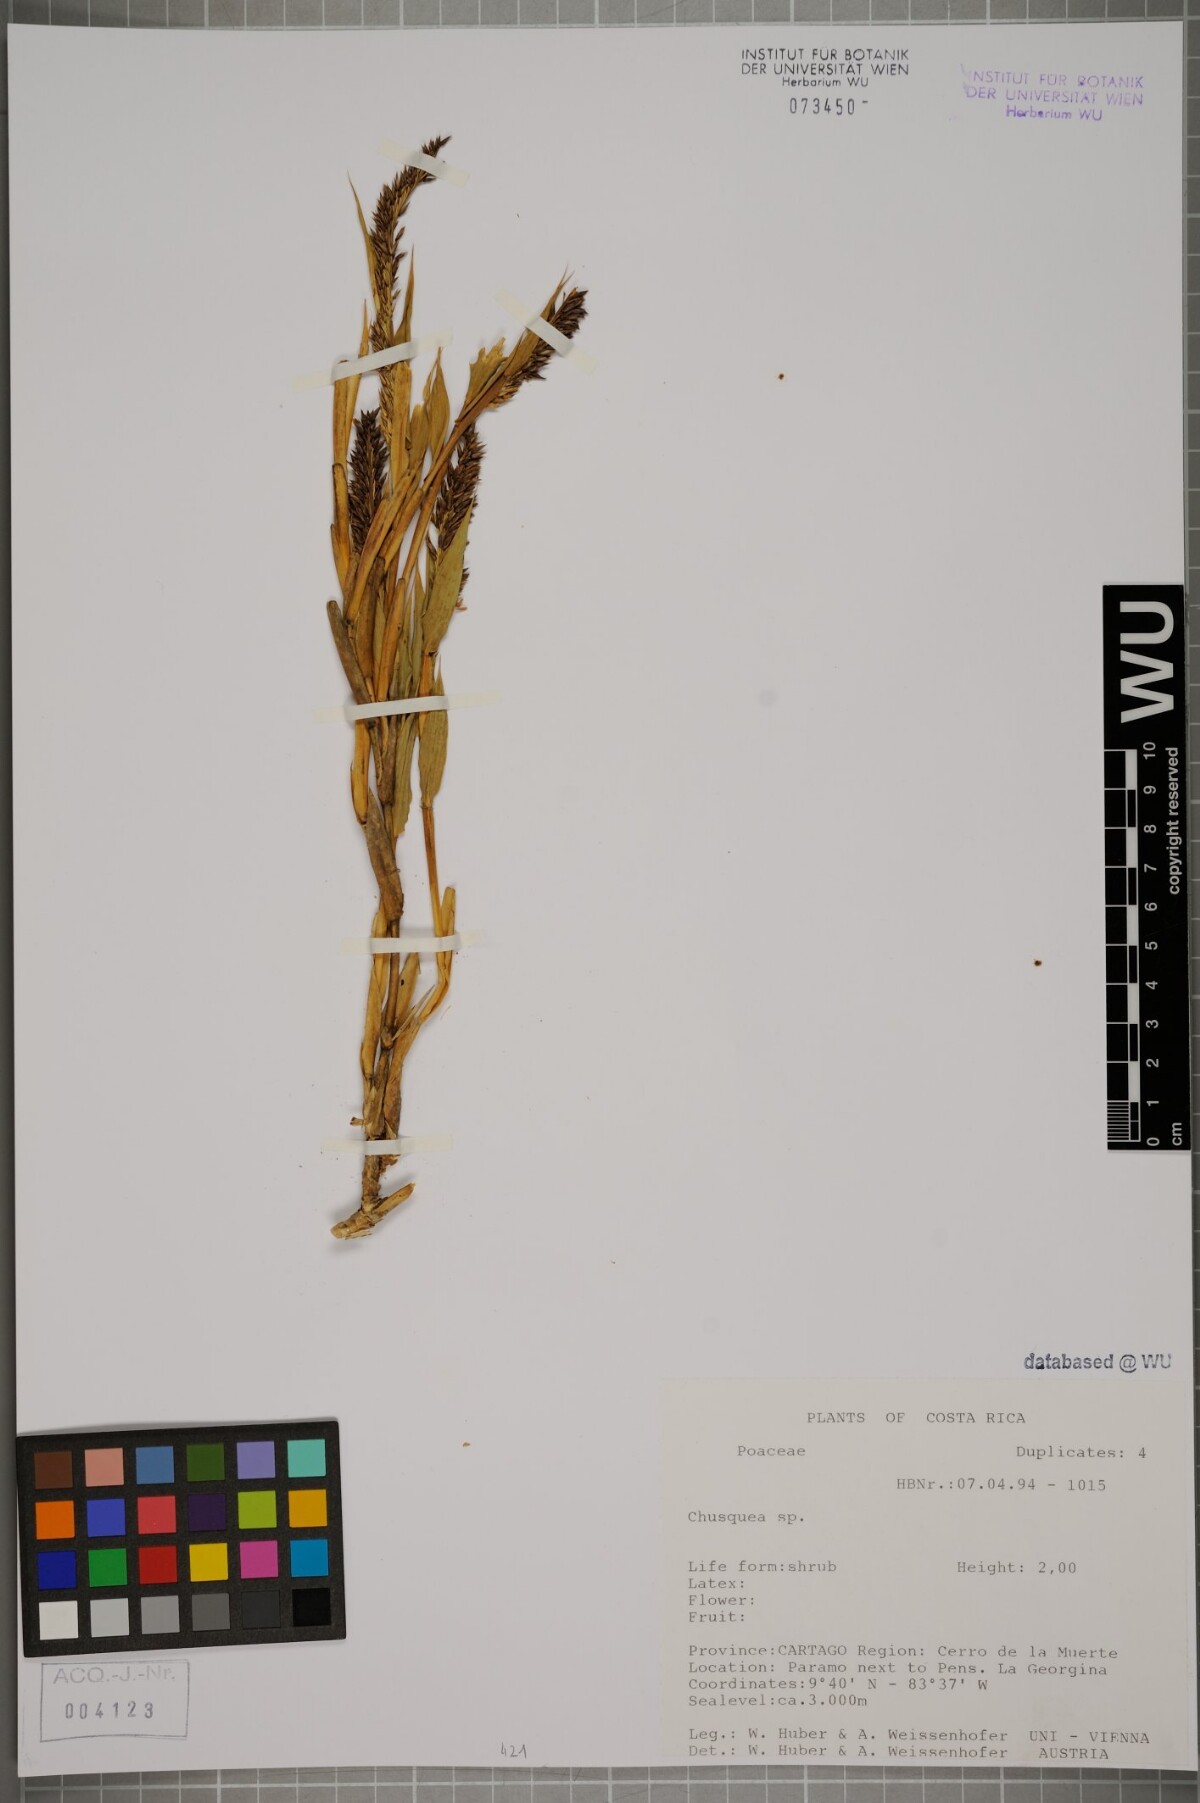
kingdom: Plantae
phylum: Tracheophyta
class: Liliopsida
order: Poales
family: Poaceae
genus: Chusquea
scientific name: Chusquea
